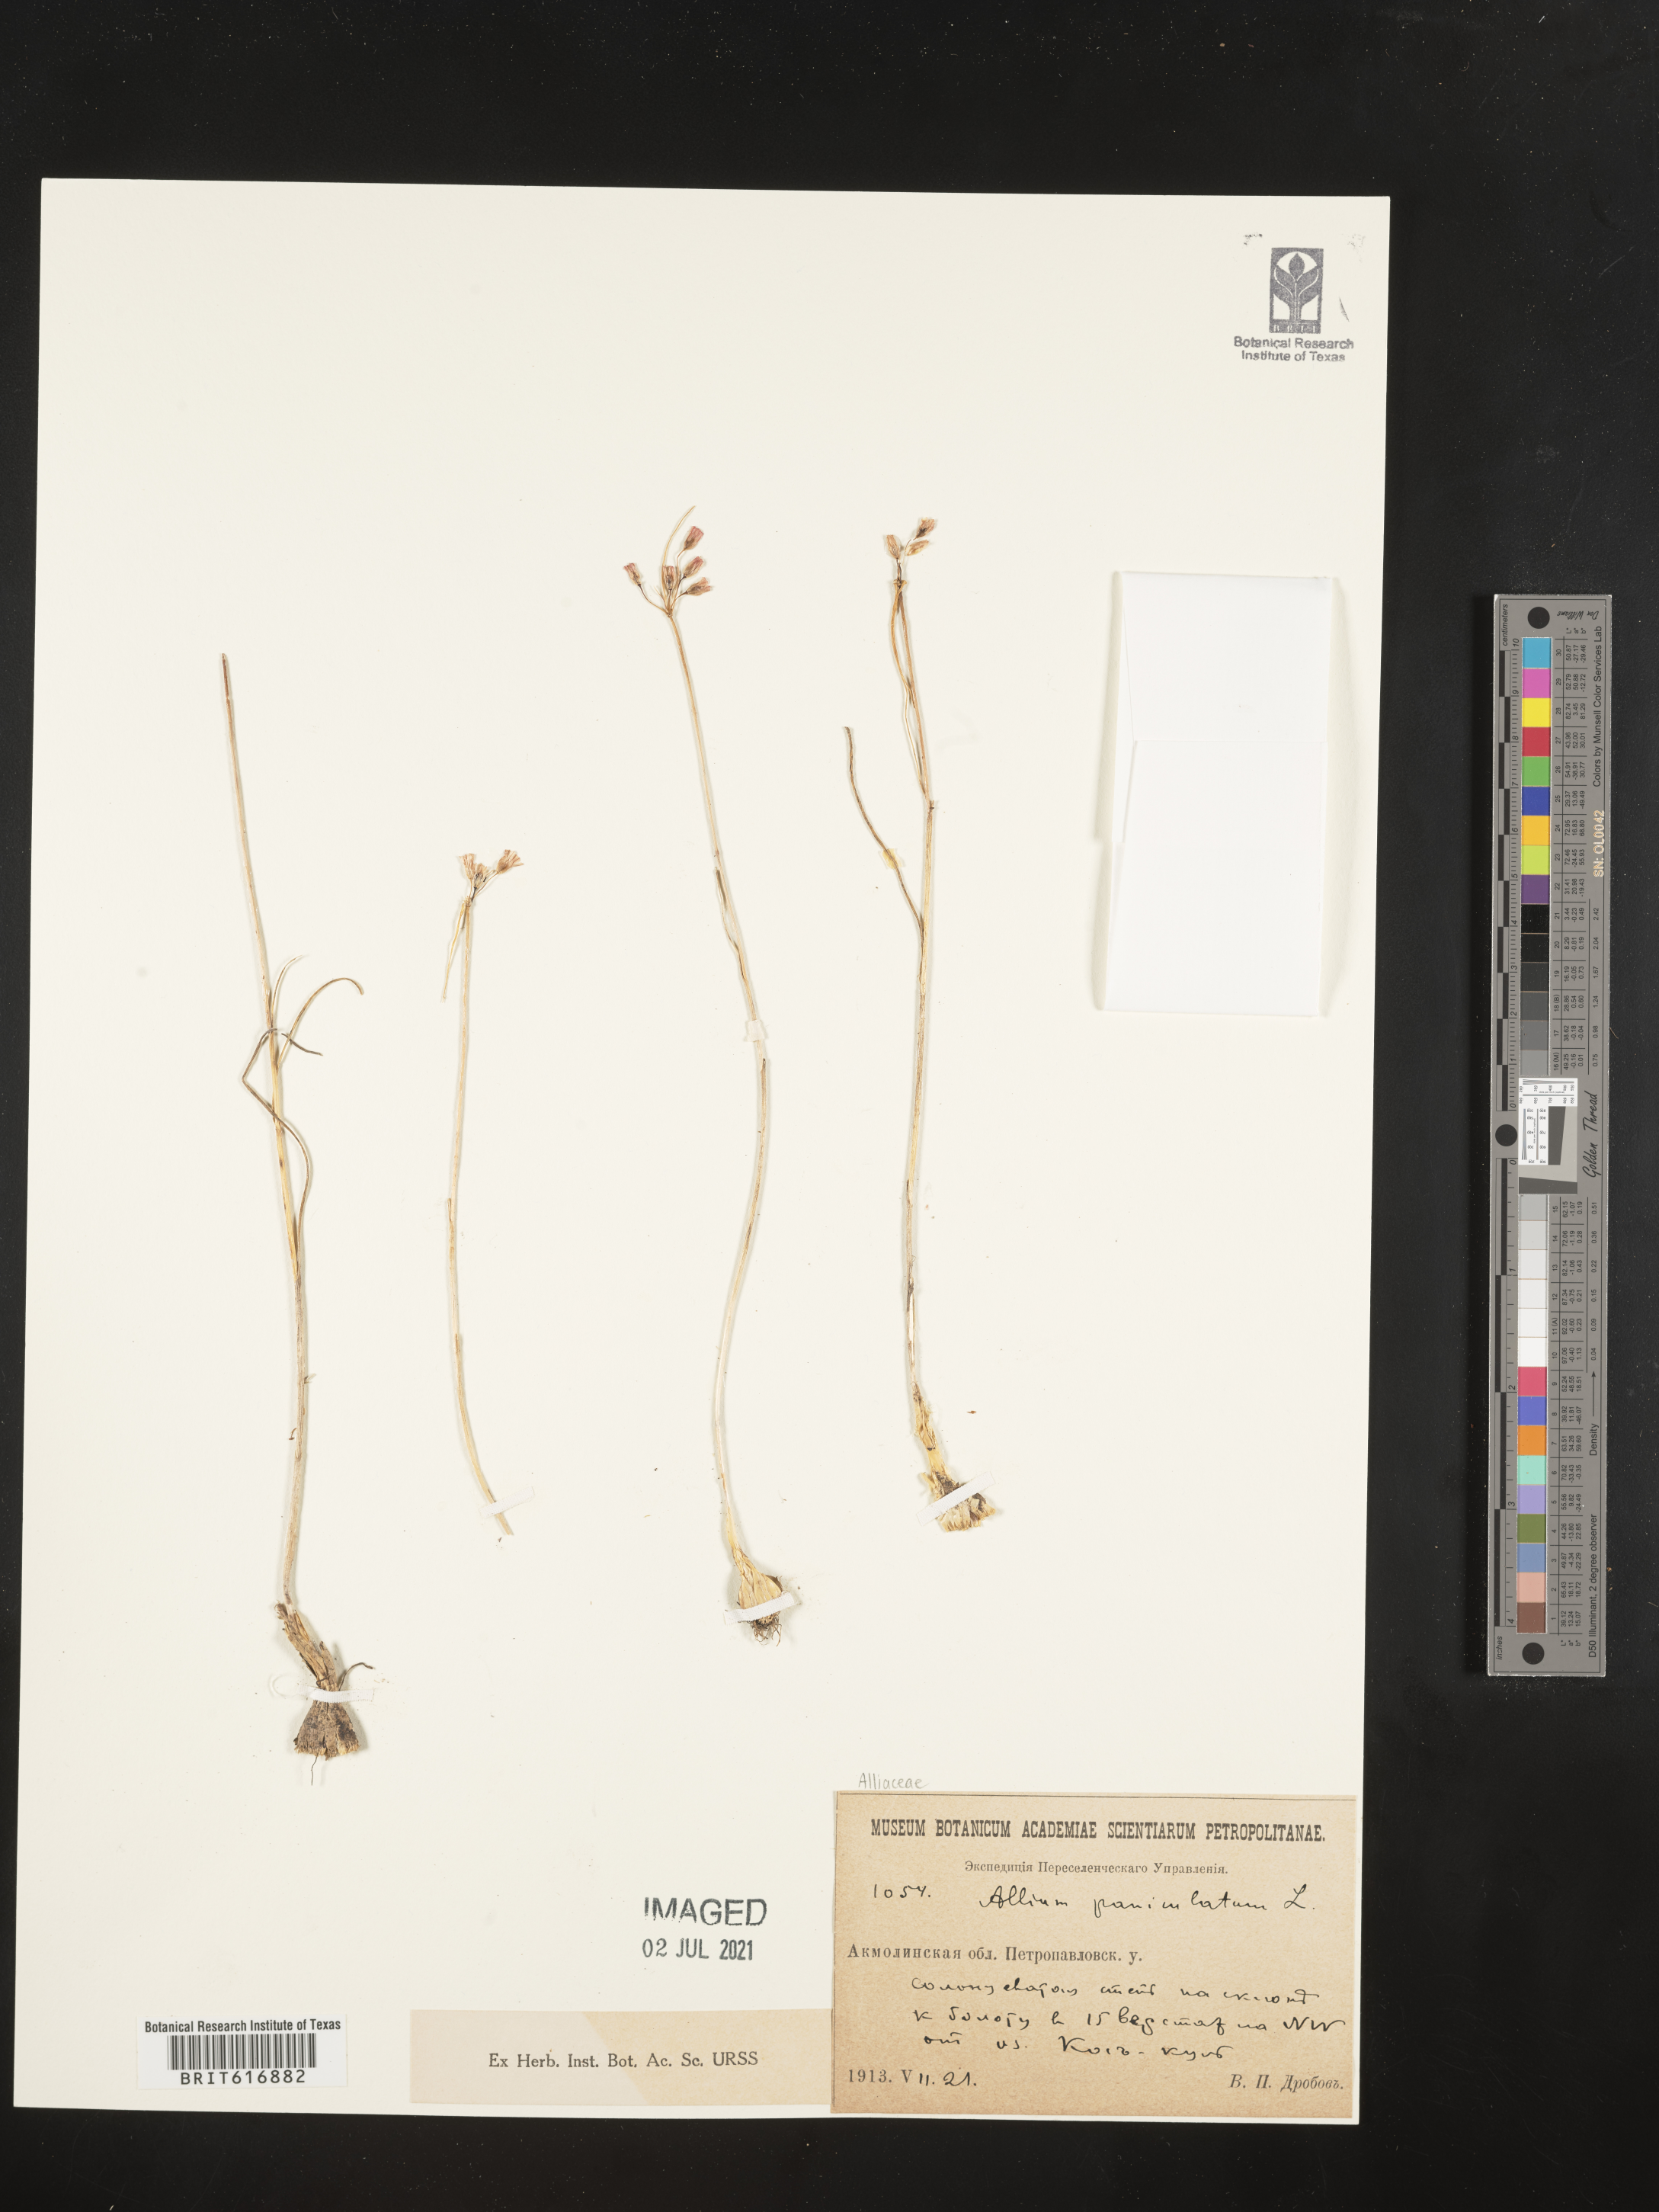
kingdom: Plantae
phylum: Tracheophyta
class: Liliopsida
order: Asparagales
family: Amaryllidaceae
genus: Allium
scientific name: Allium paniculatum
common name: Pale garlic
